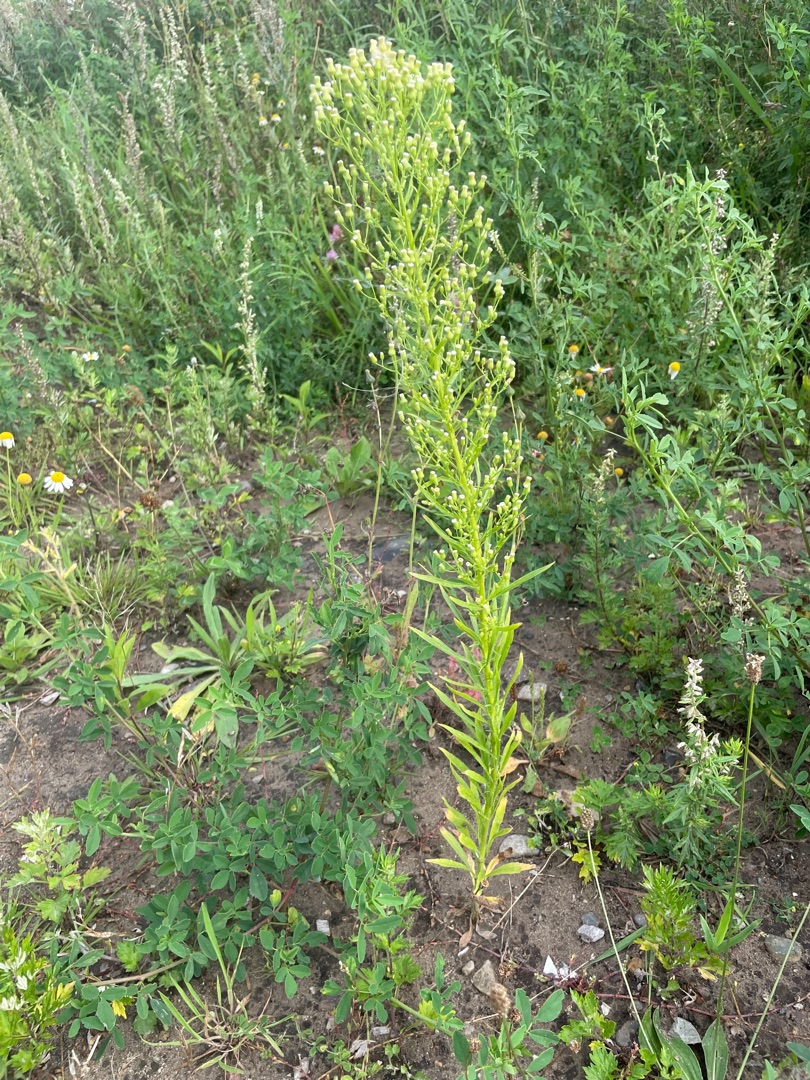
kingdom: Plantae
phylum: Tracheophyta
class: Magnoliopsida
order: Asterales
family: Asteraceae
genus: Erigeron
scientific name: Erigeron canadensis
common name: Kanadisk bakkestjerne
